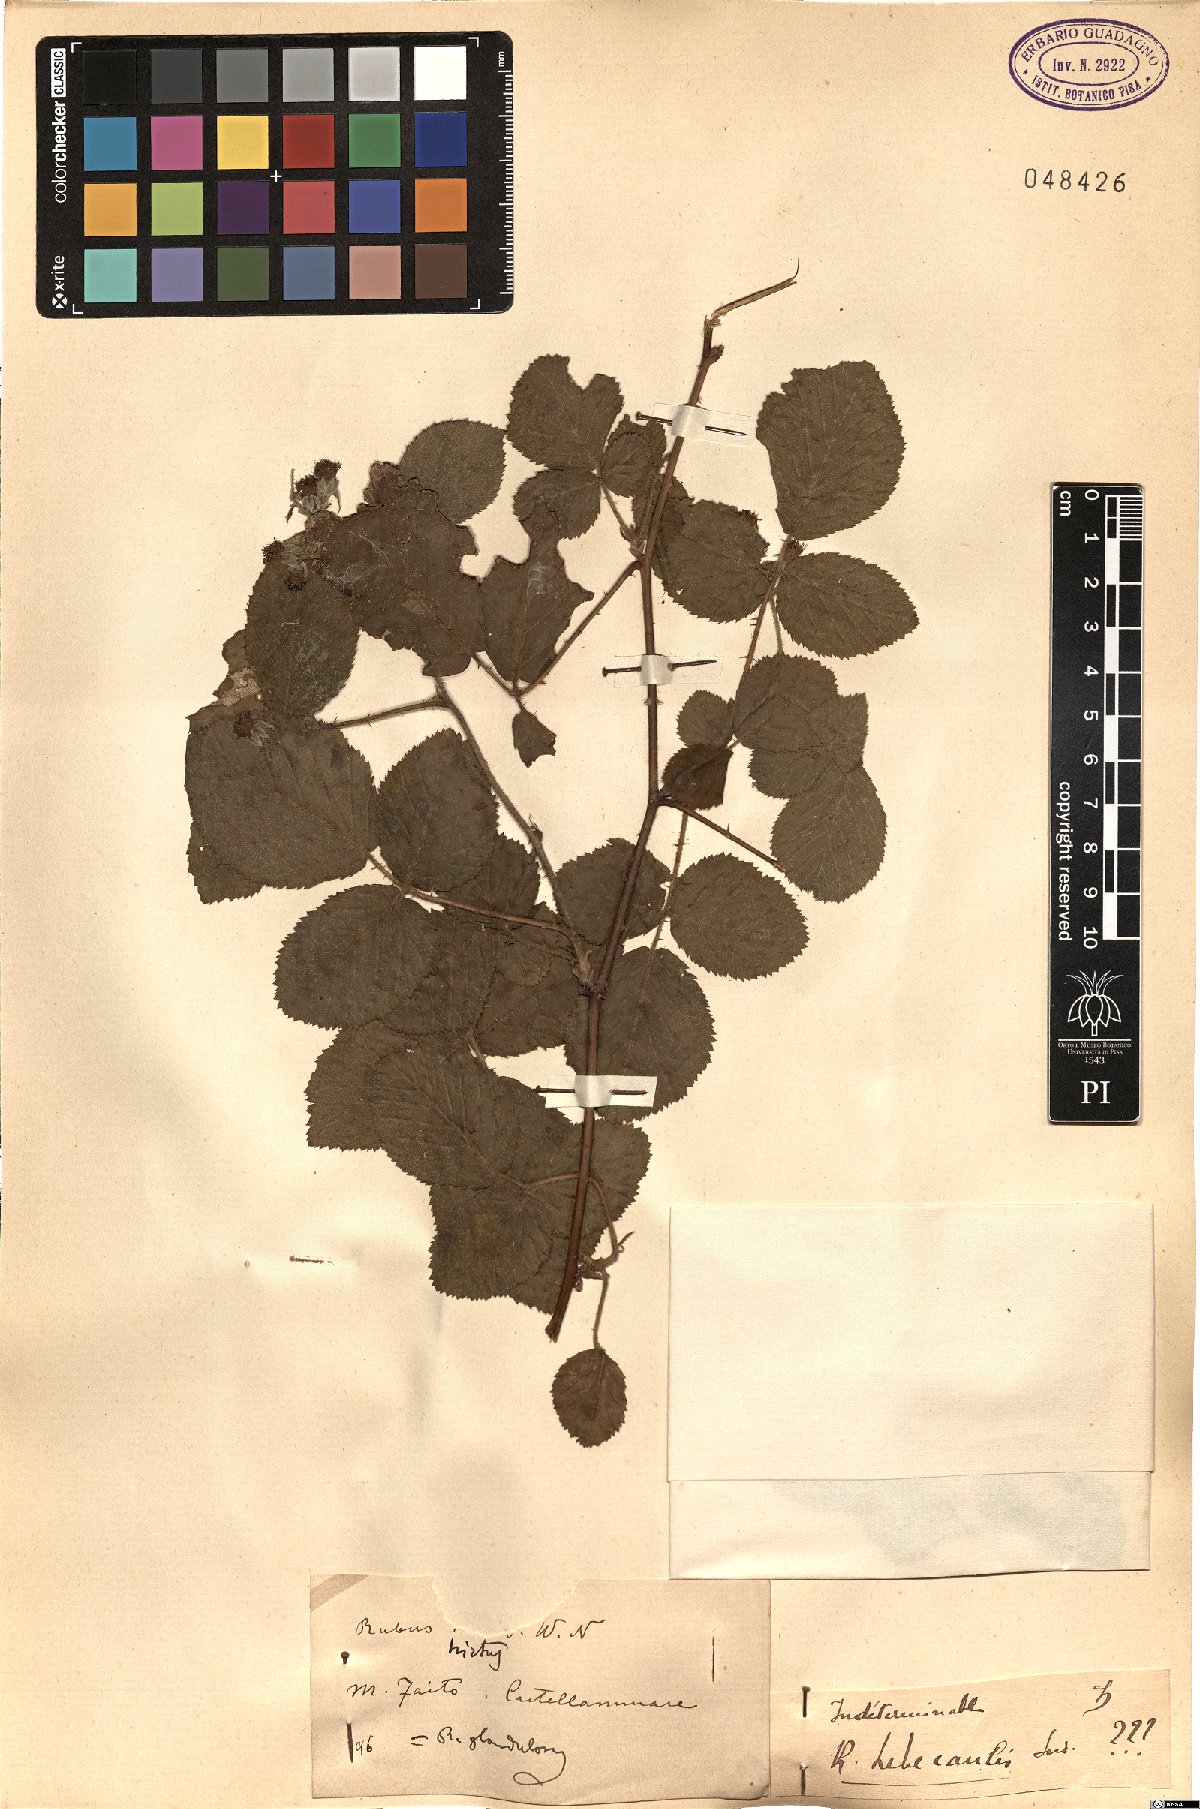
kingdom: Plantae
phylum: Tracheophyta
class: Magnoliopsida
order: Rosales
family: Rosaceae
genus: Rubus
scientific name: Rubus hirtus
